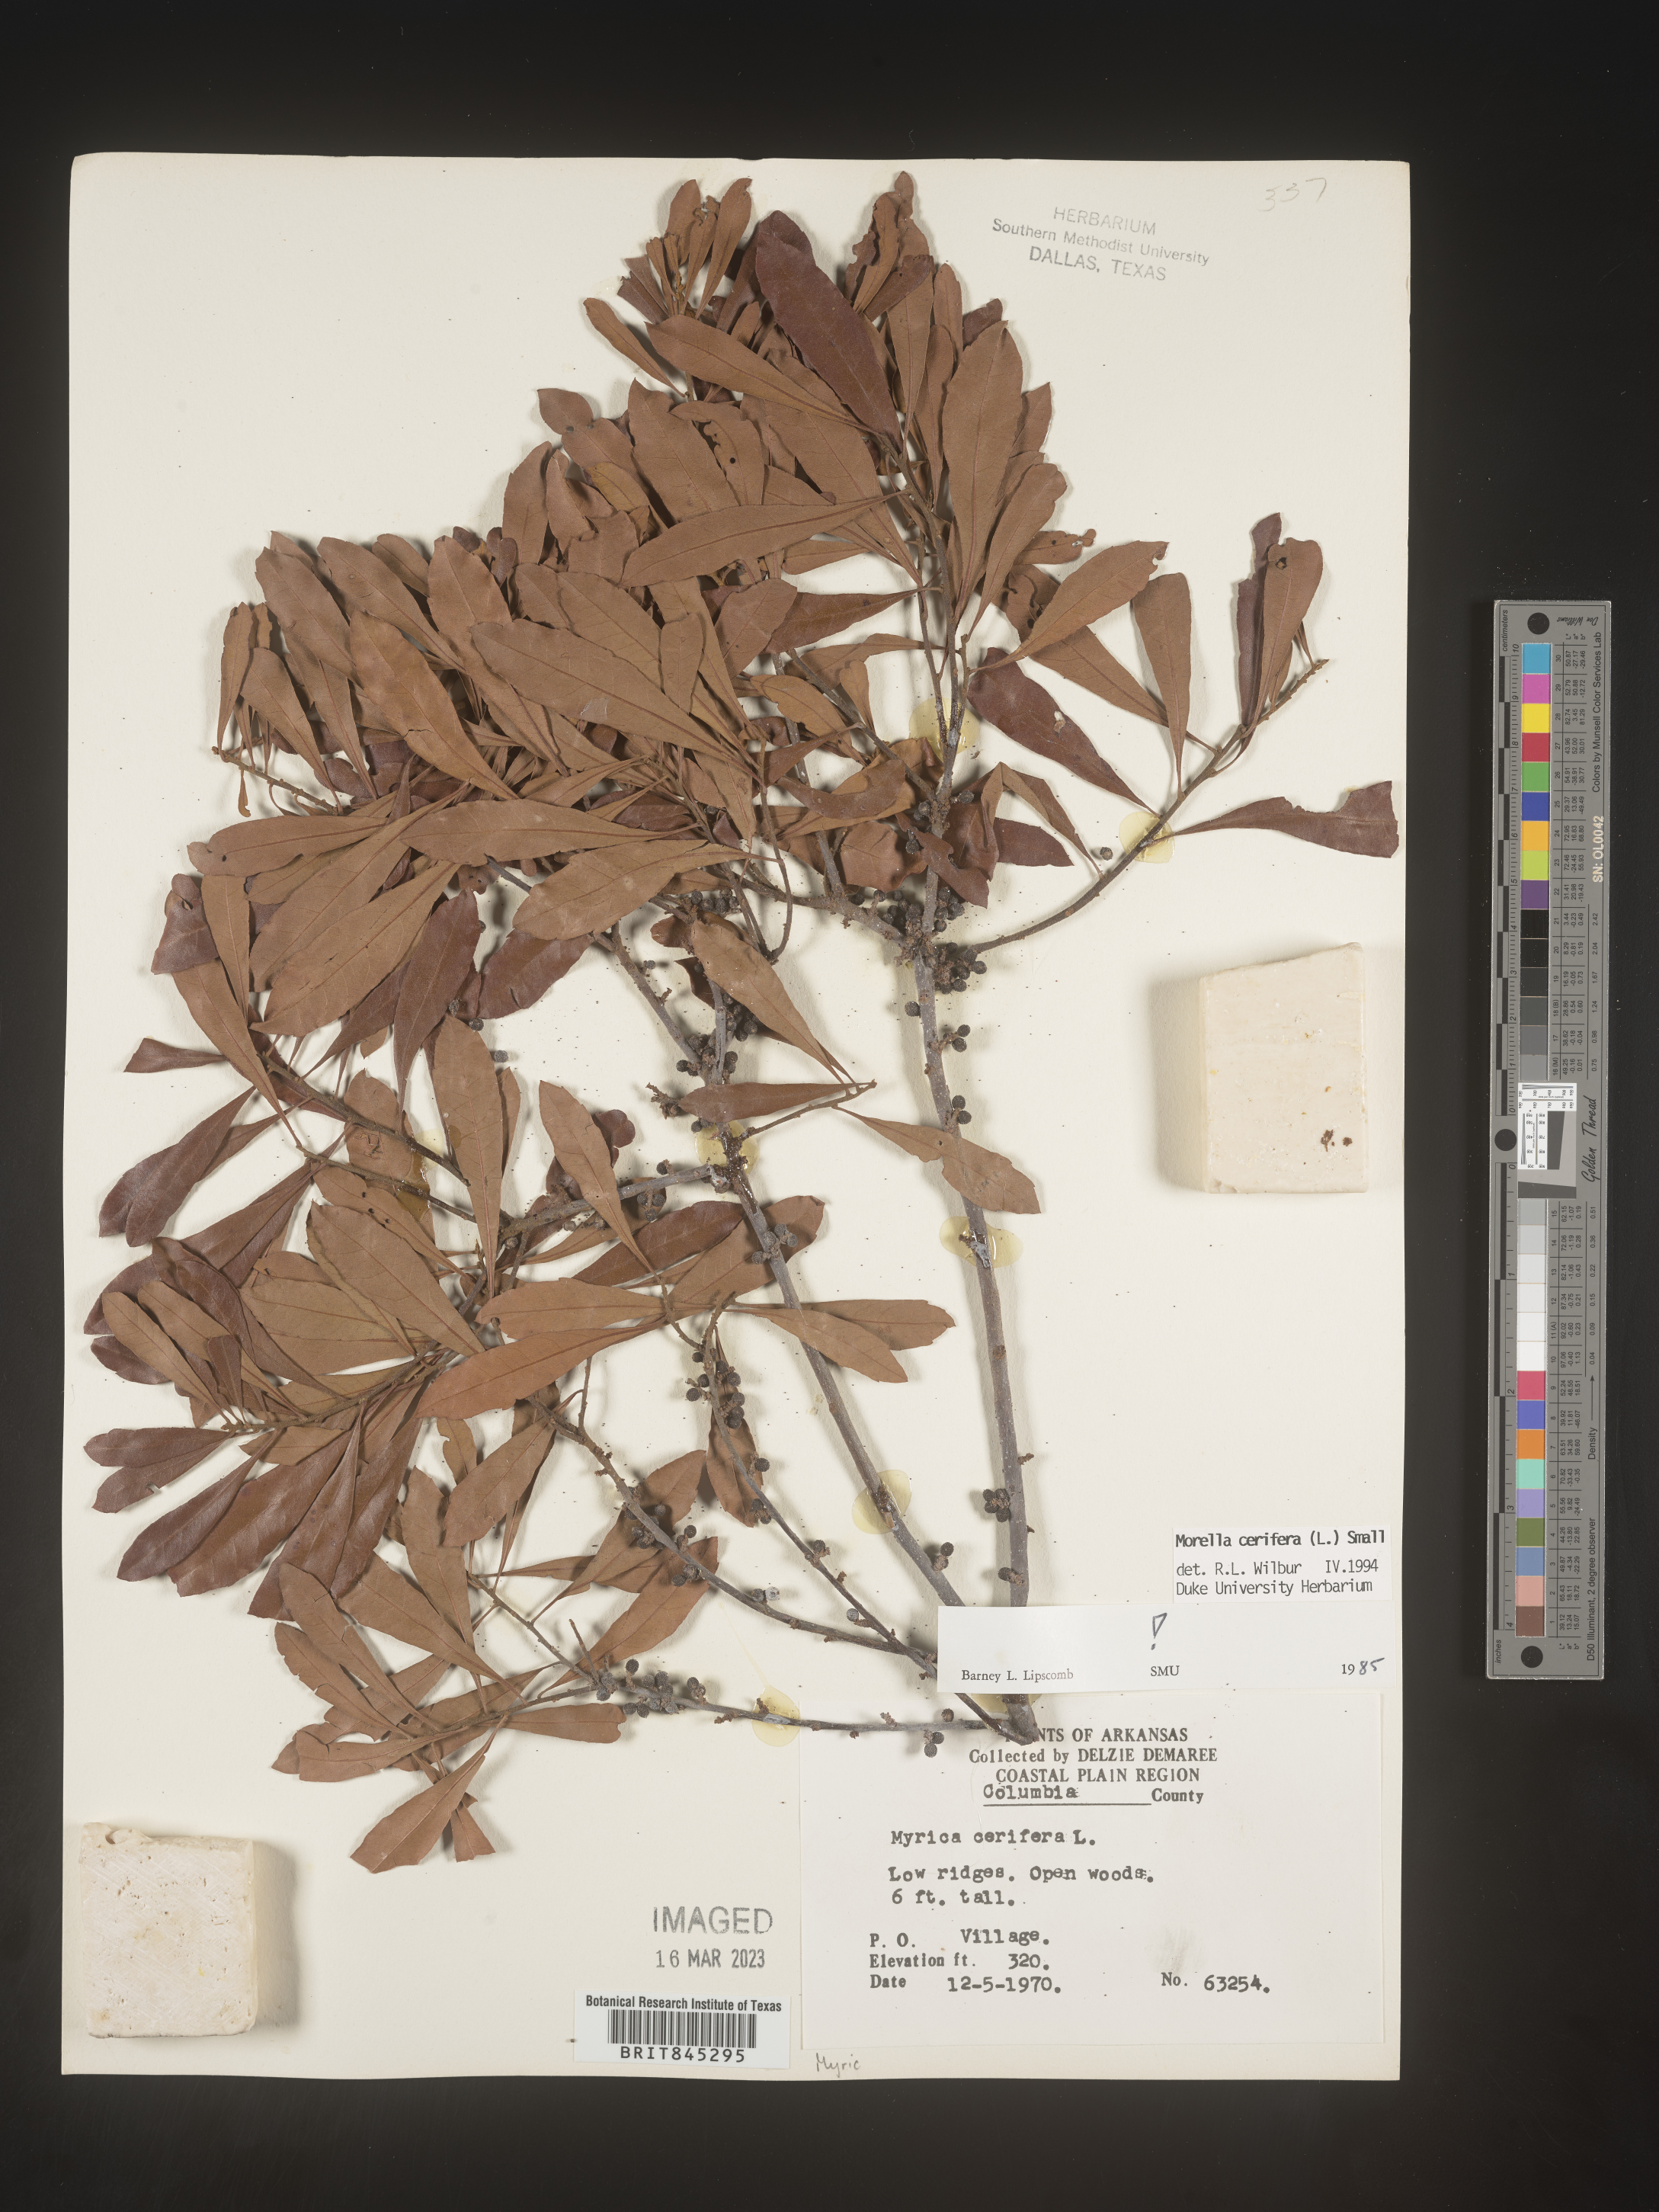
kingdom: Plantae
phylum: Tracheophyta
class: Magnoliopsida
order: Fagales
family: Myricaceae
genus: Morella
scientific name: Morella cerifera
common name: Wax myrtle
